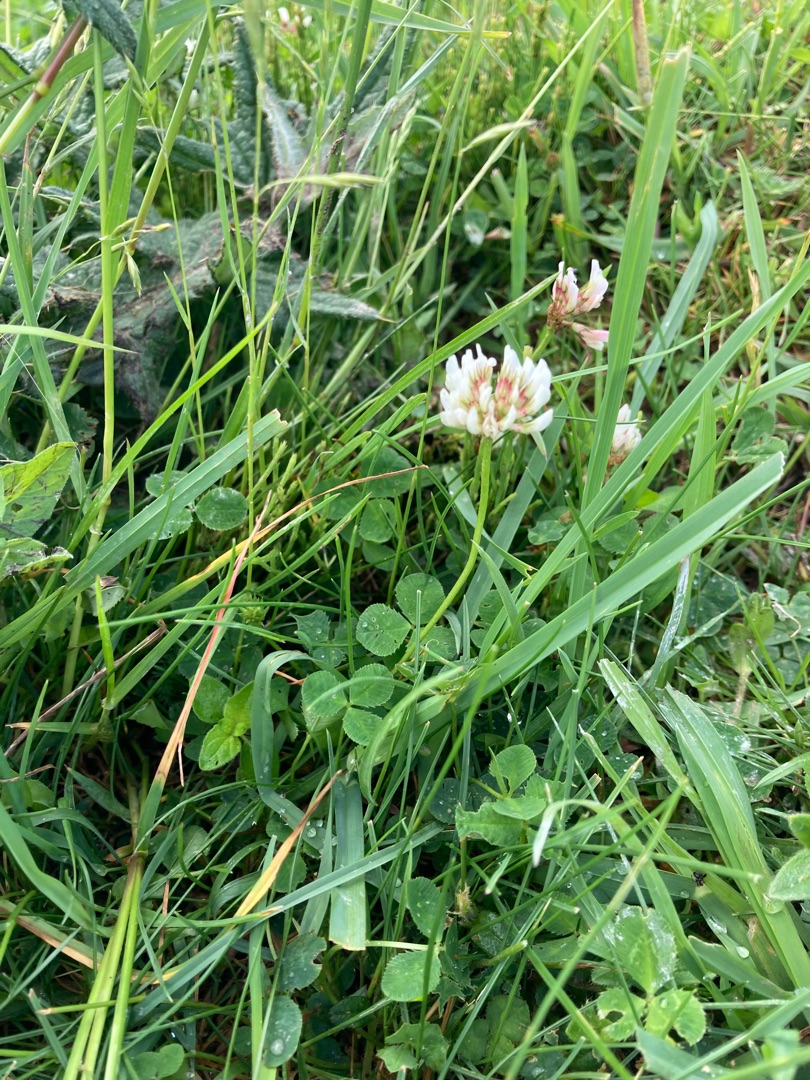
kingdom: Plantae
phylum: Tracheophyta
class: Magnoliopsida
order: Fabales
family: Fabaceae
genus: Trifolium
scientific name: Trifolium repens
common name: Hvid-kløver
